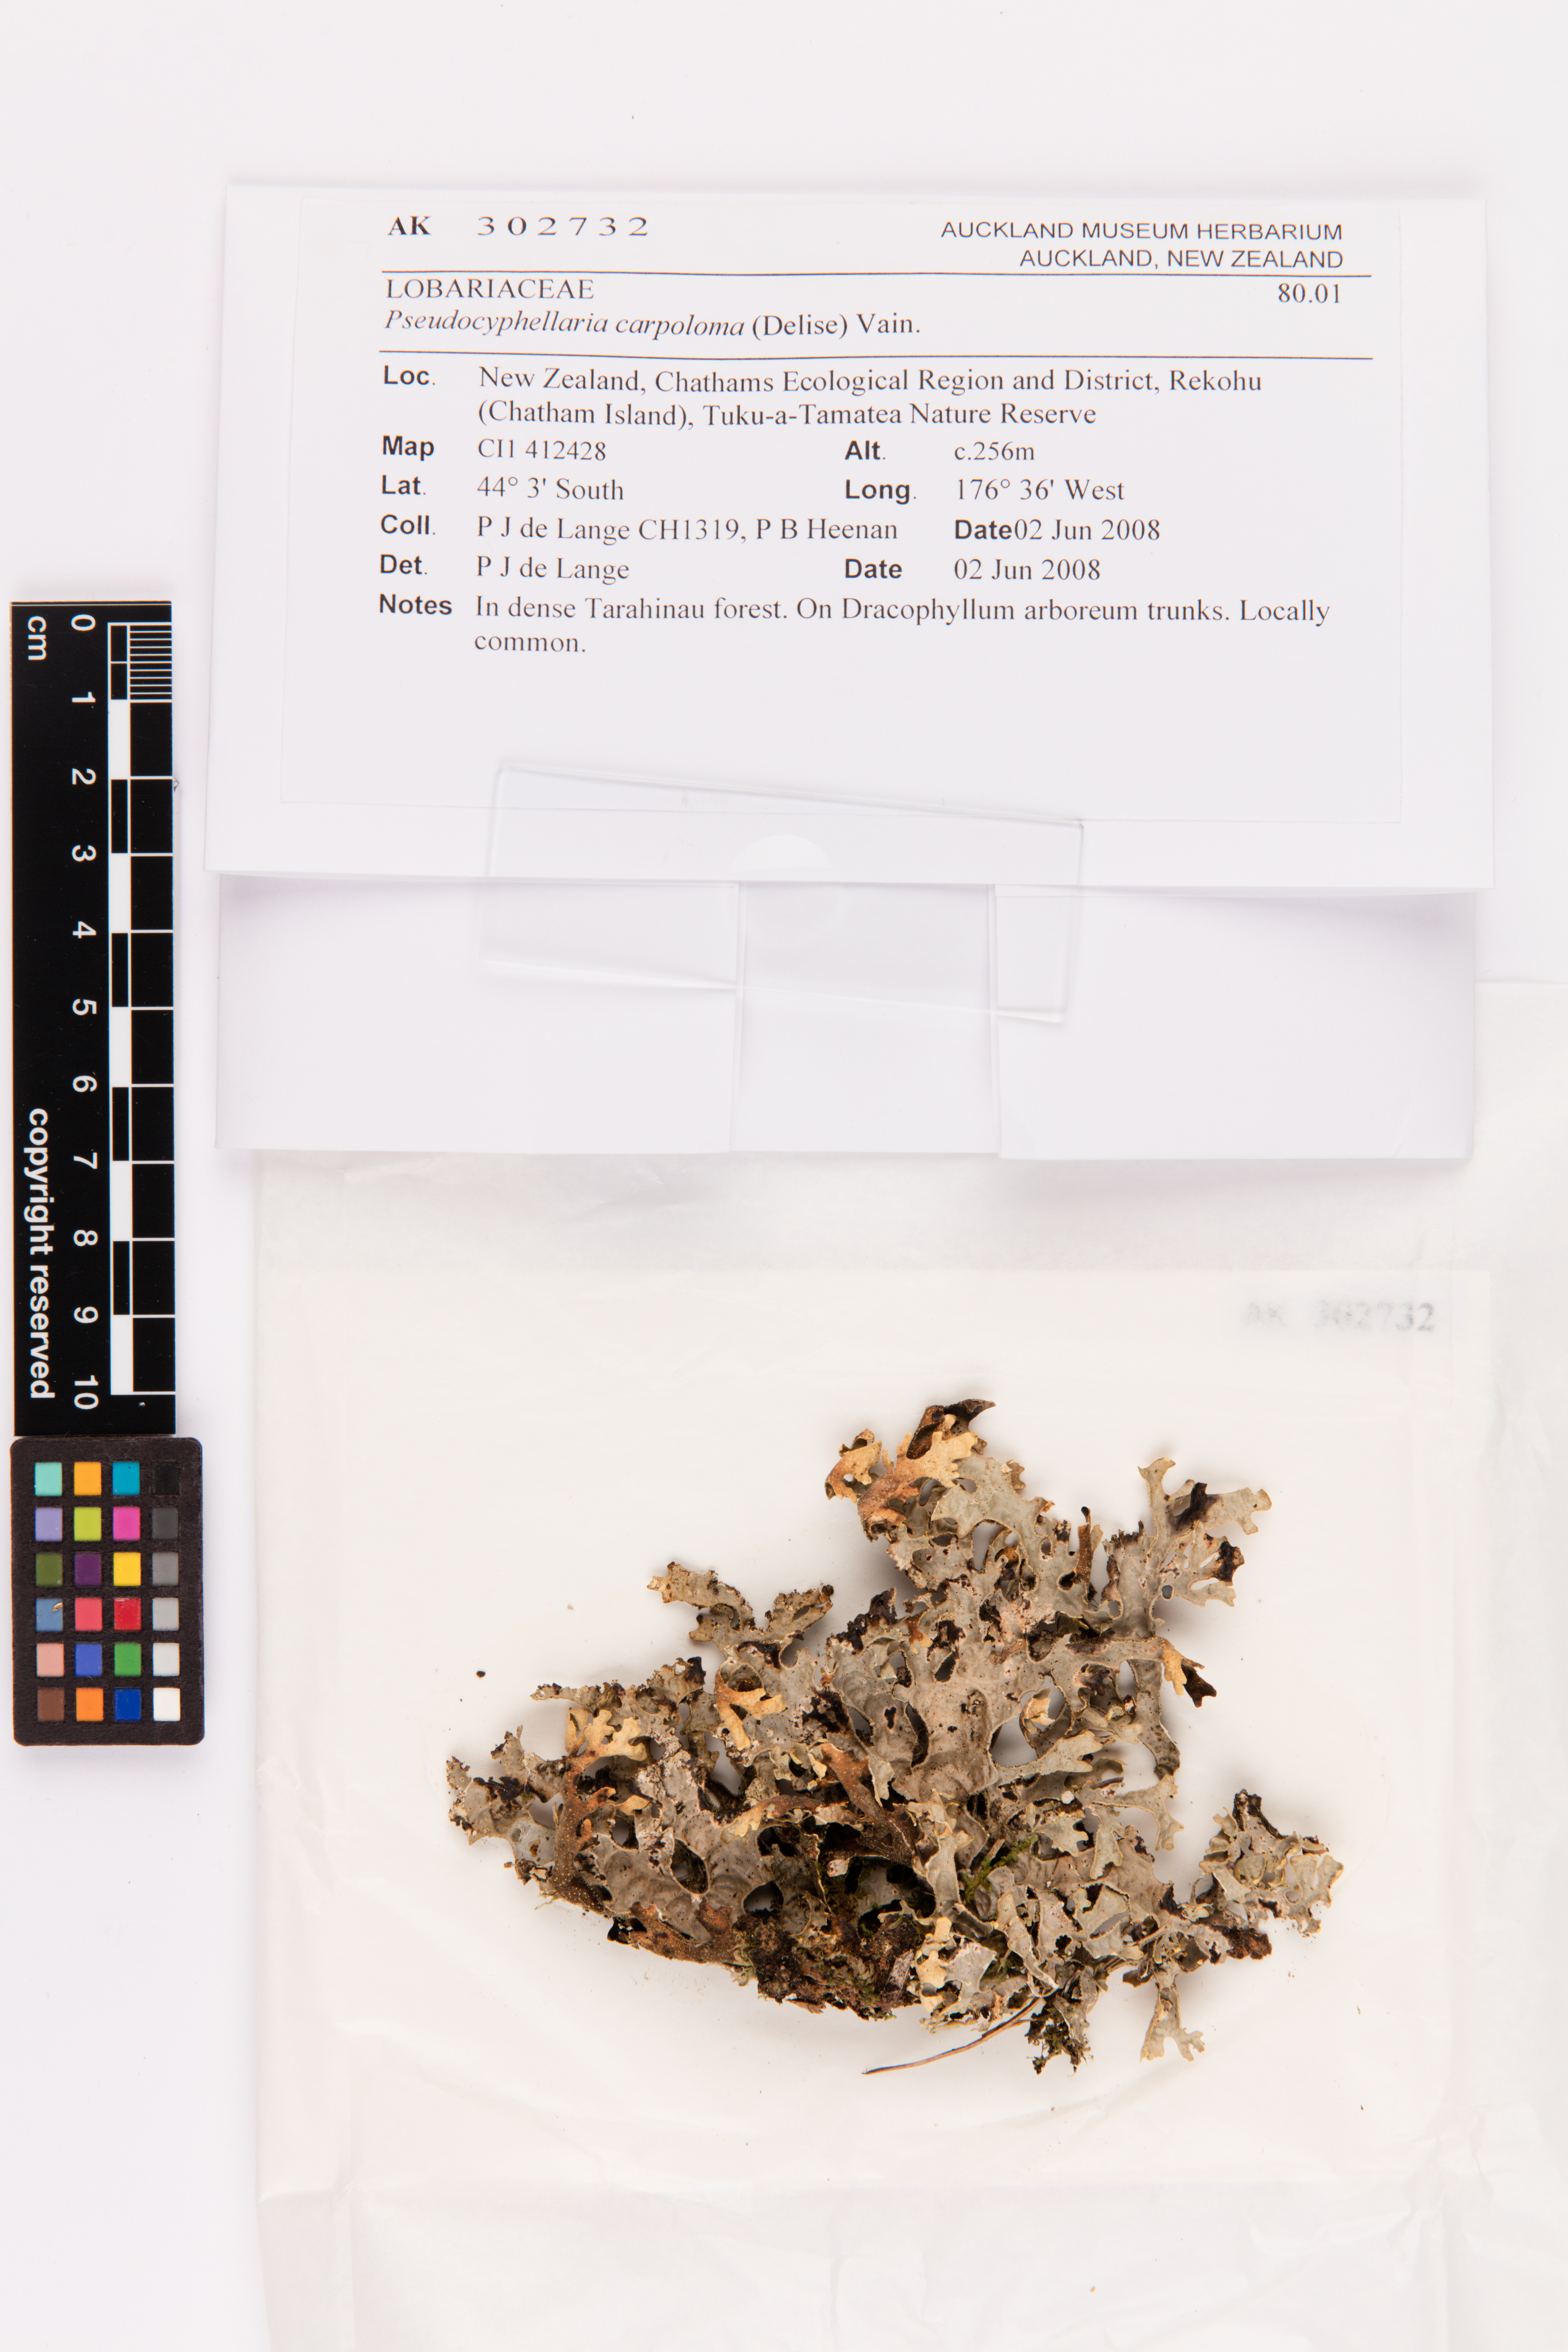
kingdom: Fungi
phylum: Ascomycota
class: Lecanoromycetes
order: Peltigerales
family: Lobariaceae
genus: Pseudocyphellaria
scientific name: Pseudocyphellaria carpoloma
